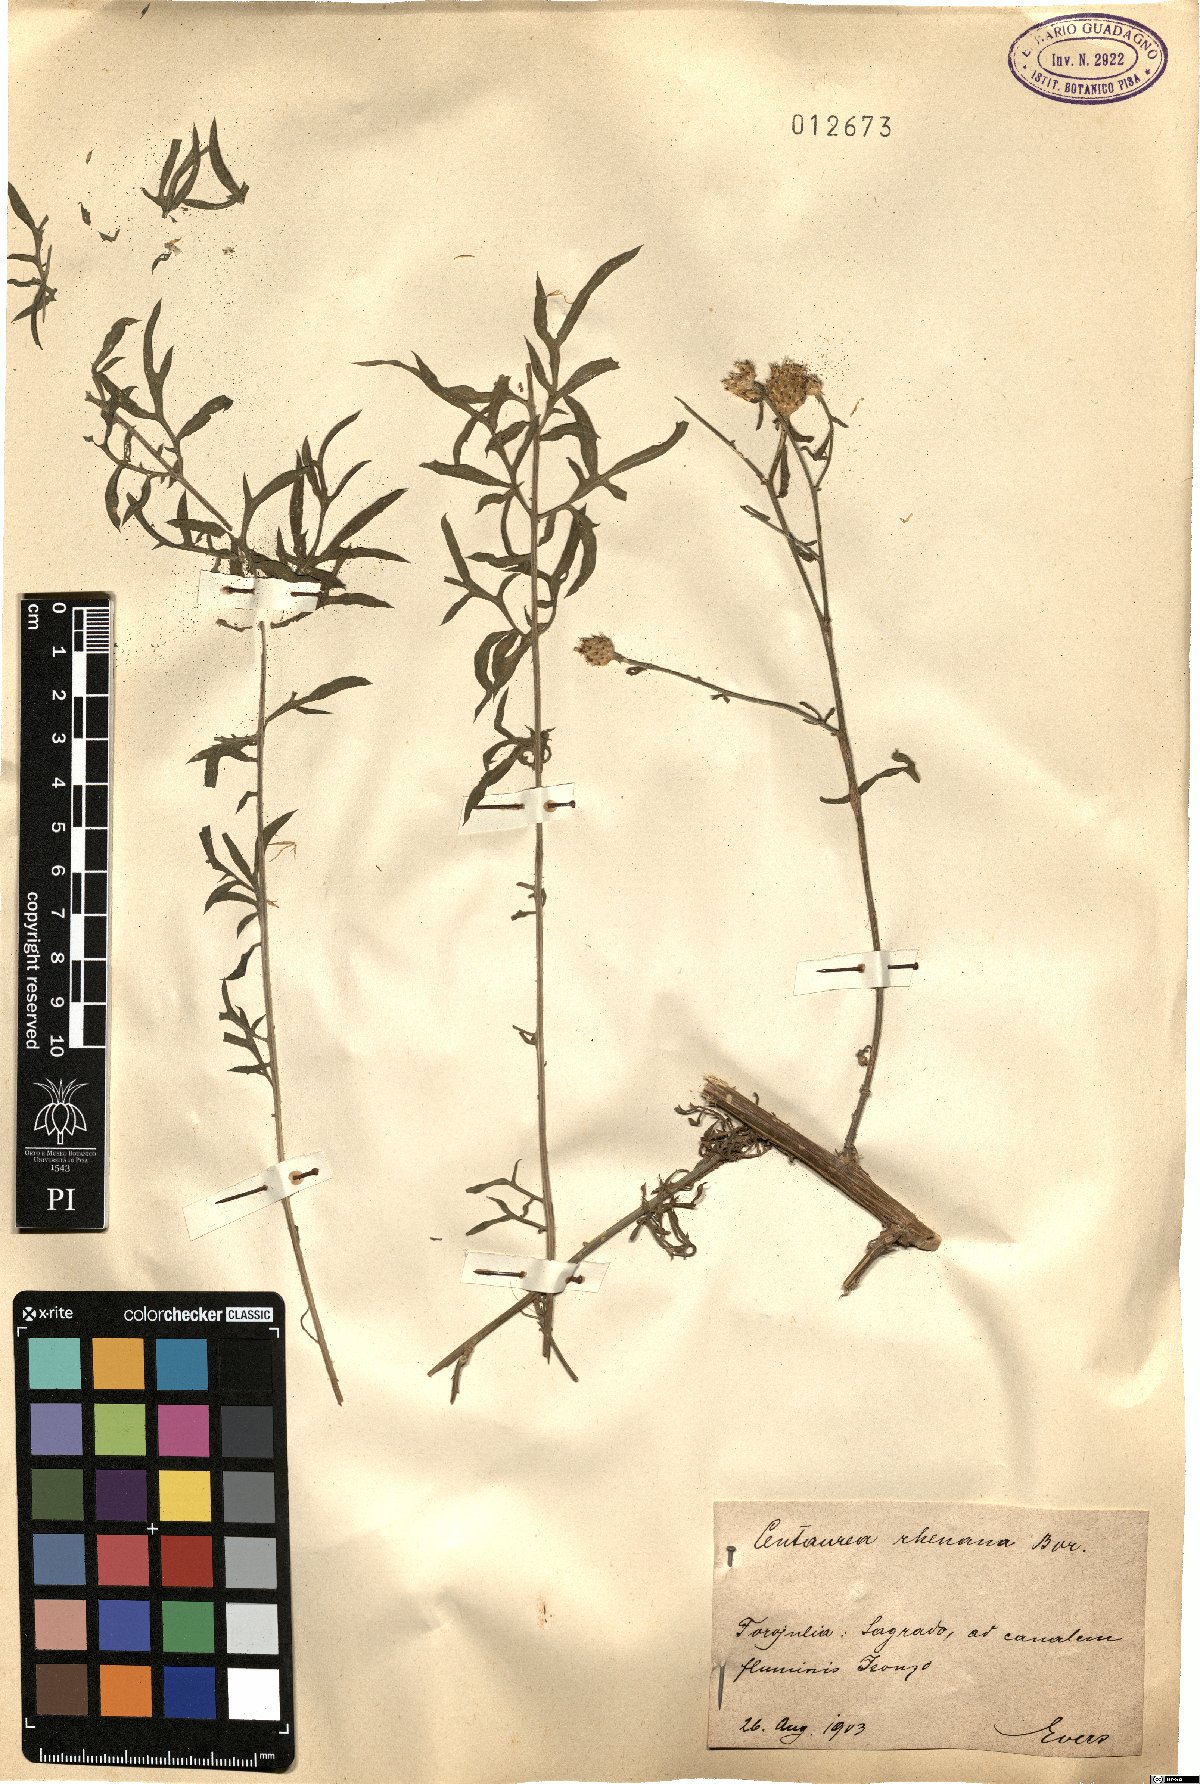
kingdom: Plantae
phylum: Tracheophyta
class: Magnoliopsida
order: Asterales
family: Asteraceae
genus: Centaurea
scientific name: Centaurea stoebe
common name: Spotted knapweed
